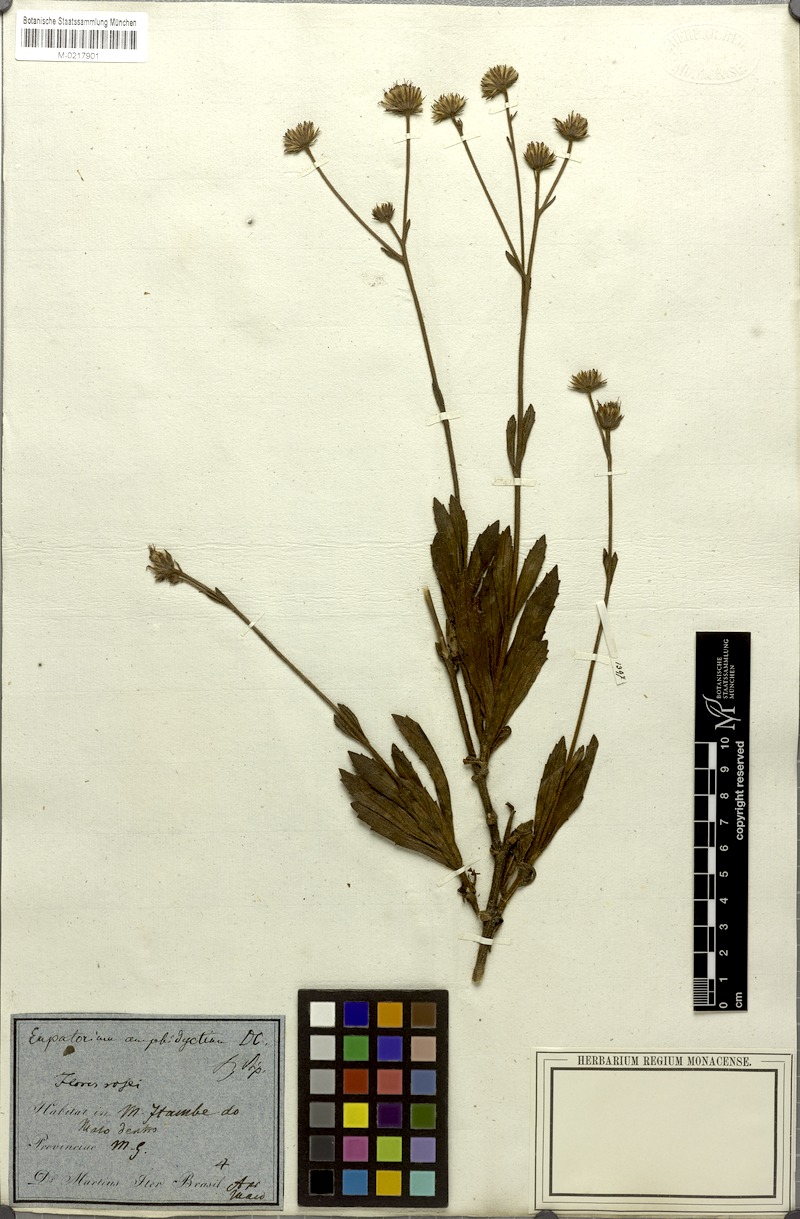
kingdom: Plantae
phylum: Tracheophyta
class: Magnoliopsida
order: Asterales
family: Asteraceae
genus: Heterocondylus
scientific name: Heterocondylus amphidictyus
